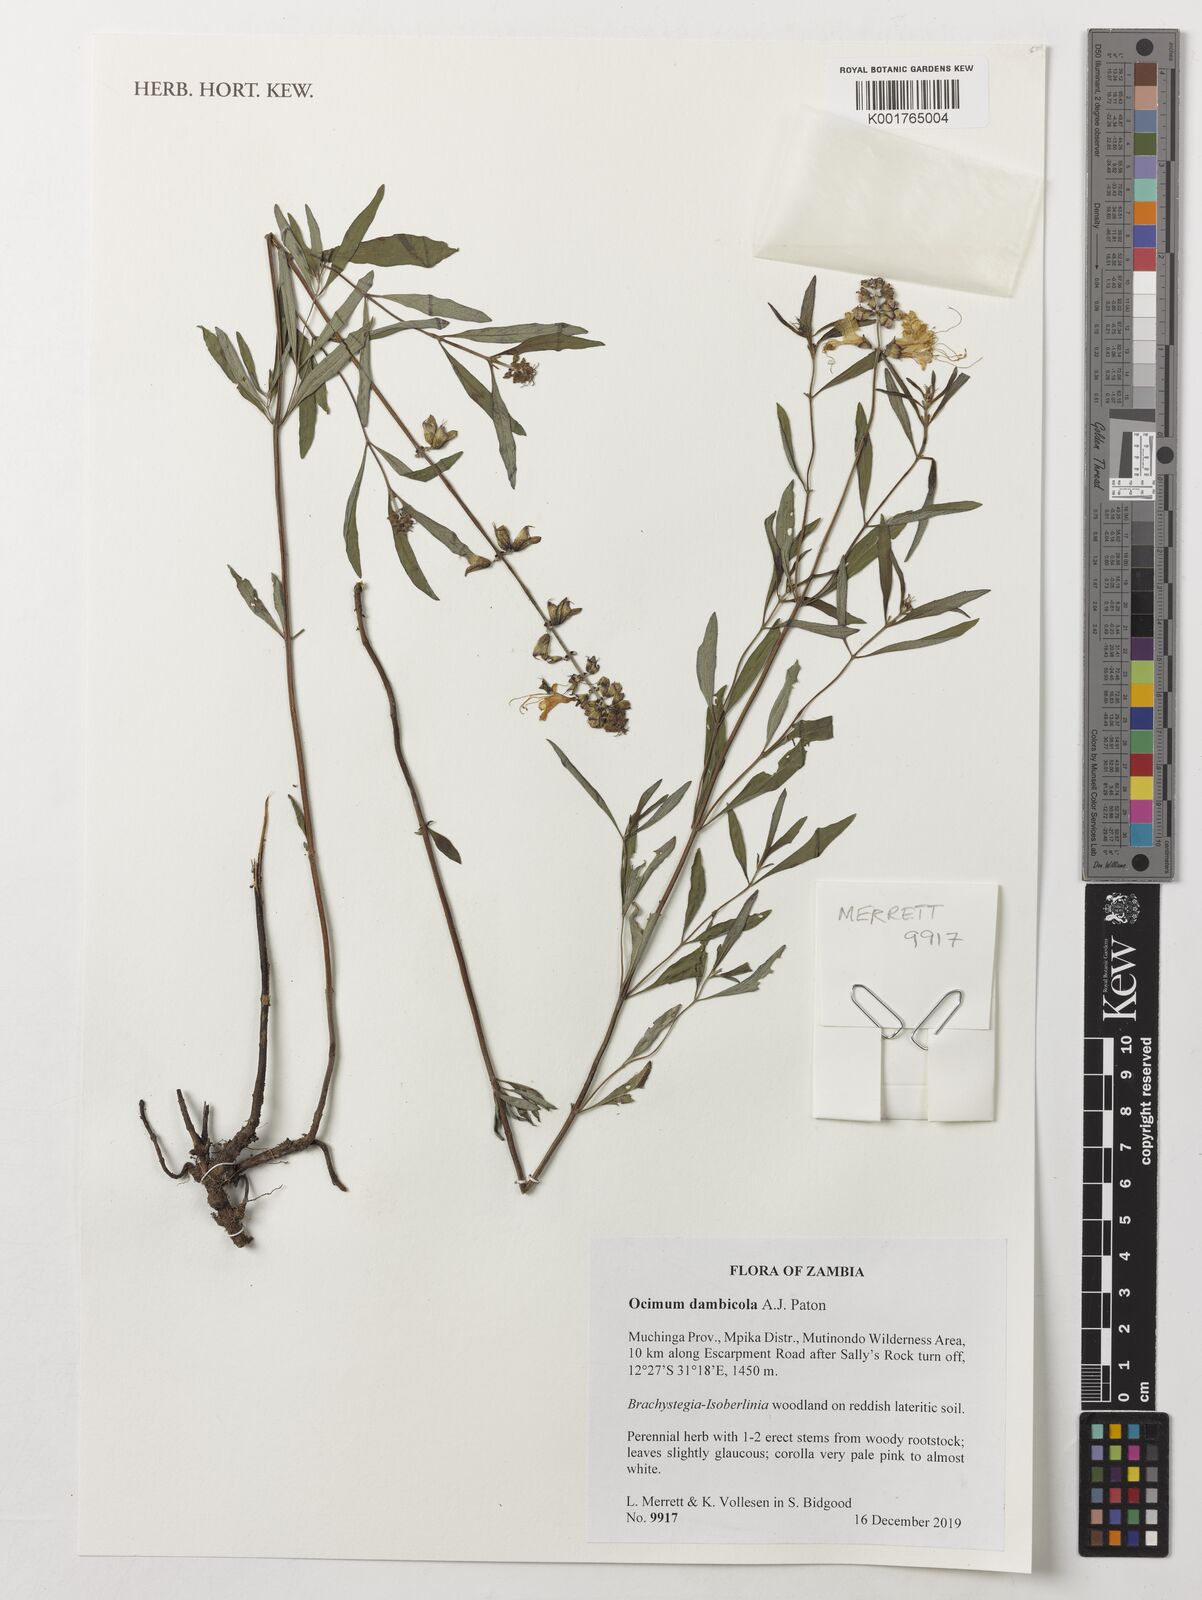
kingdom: Plantae
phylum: Tracheophyta
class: Magnoliopsida
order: Lamiales
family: Lamiaceae
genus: Ocimum
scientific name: Ocimum dambicola
